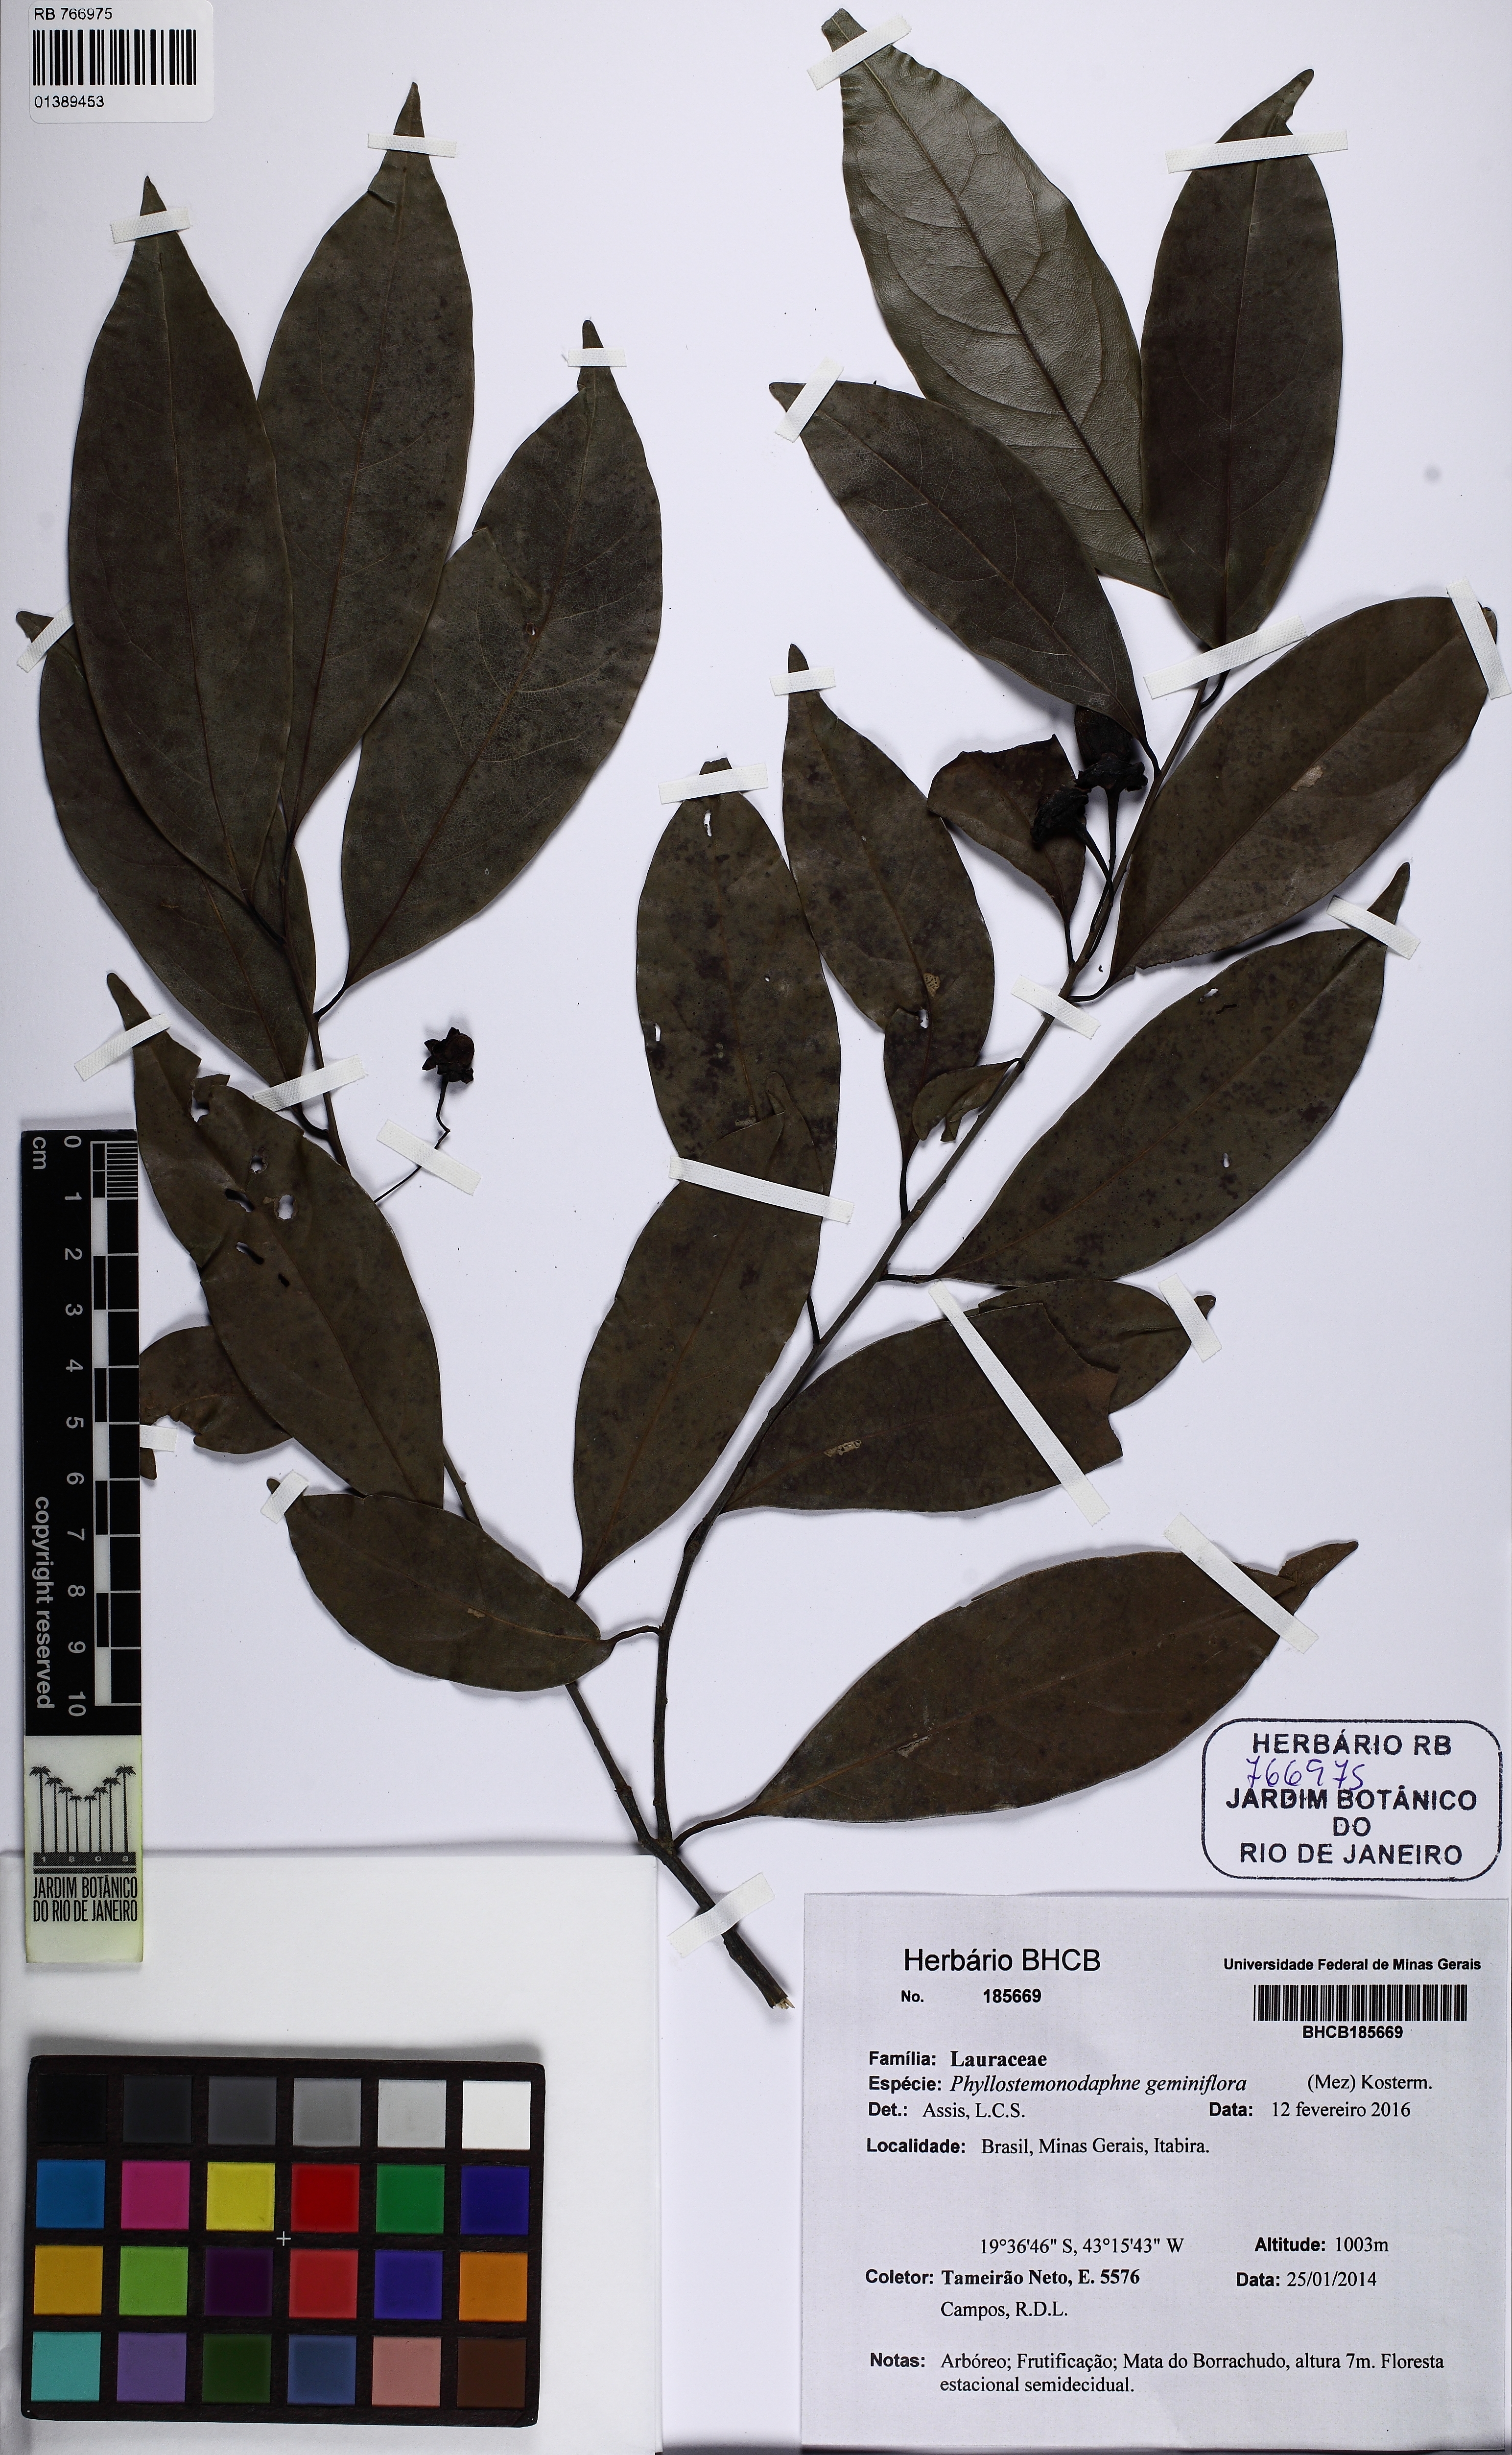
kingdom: Plantae
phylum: Tracheophyta
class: Magnoliopsida
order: Laurales
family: Lauraceae
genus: Phyllostemonodaphne
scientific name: Phyllostemonodaphne geminiflora
